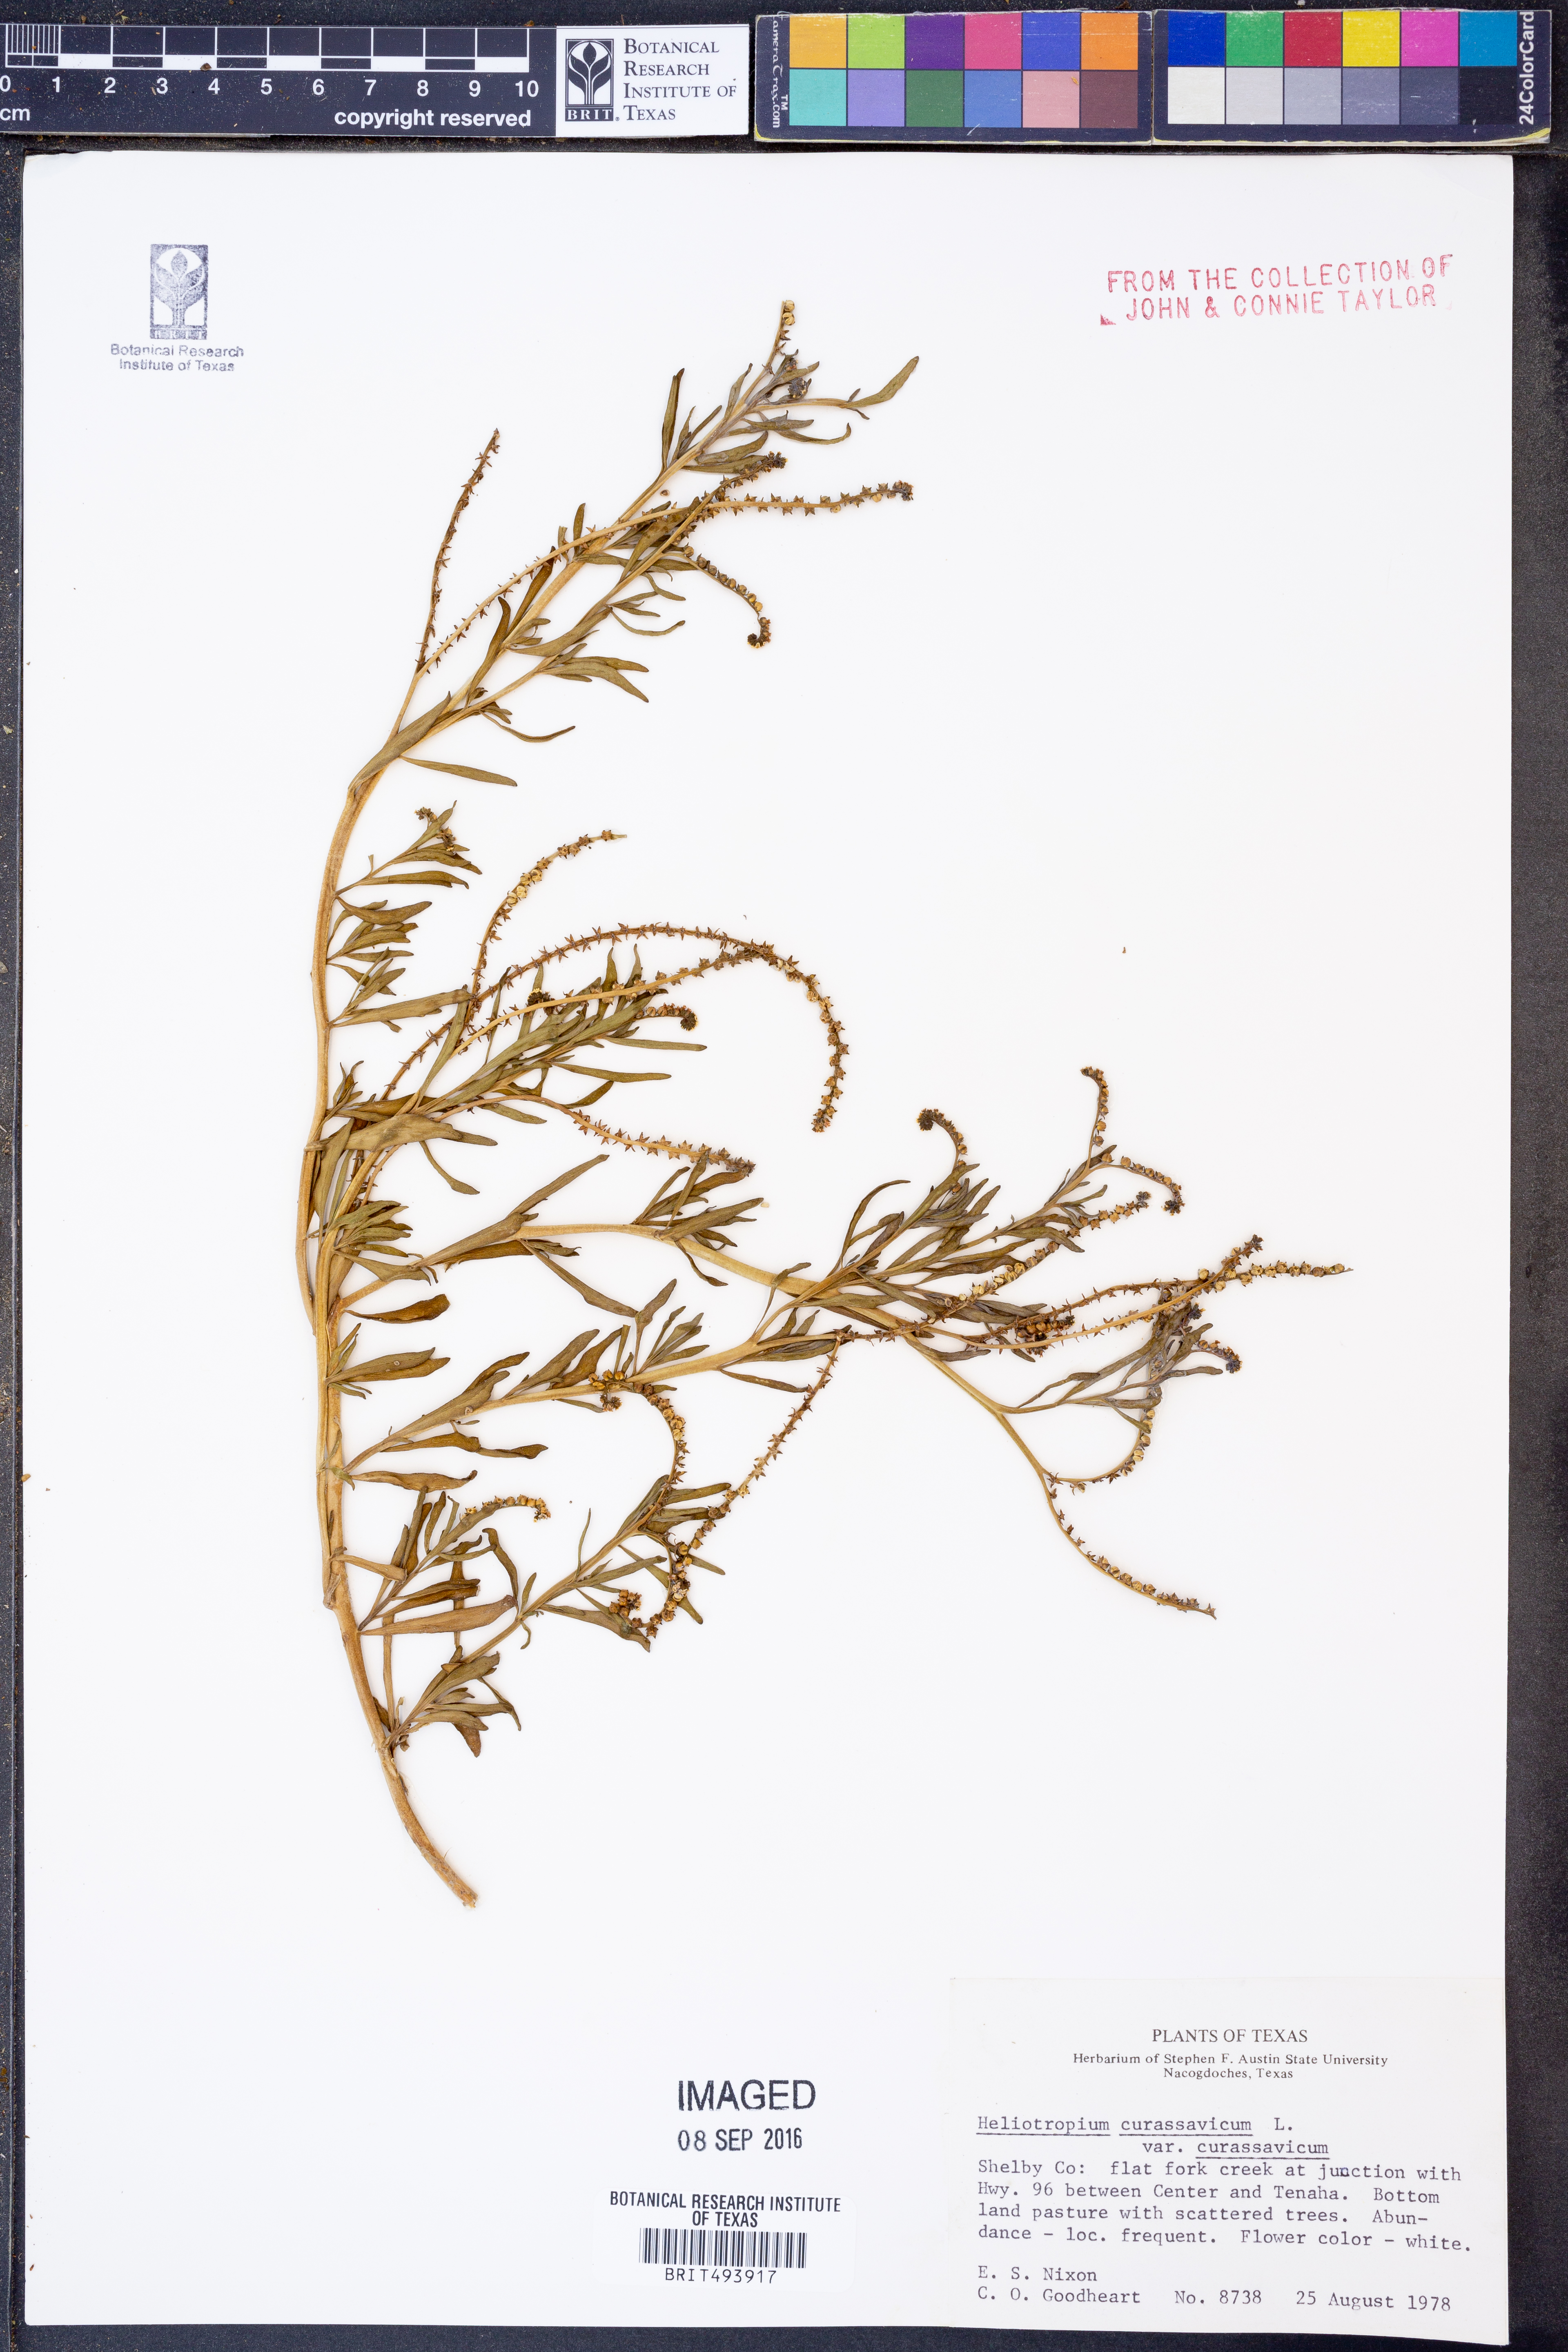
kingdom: Plantae
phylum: Tracheophyta
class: Magnoliopsida
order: Boraginales
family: Heliotropiaceae
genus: Heliotropium
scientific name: Heliotropium curassavicum
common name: Seaside heliotrope
